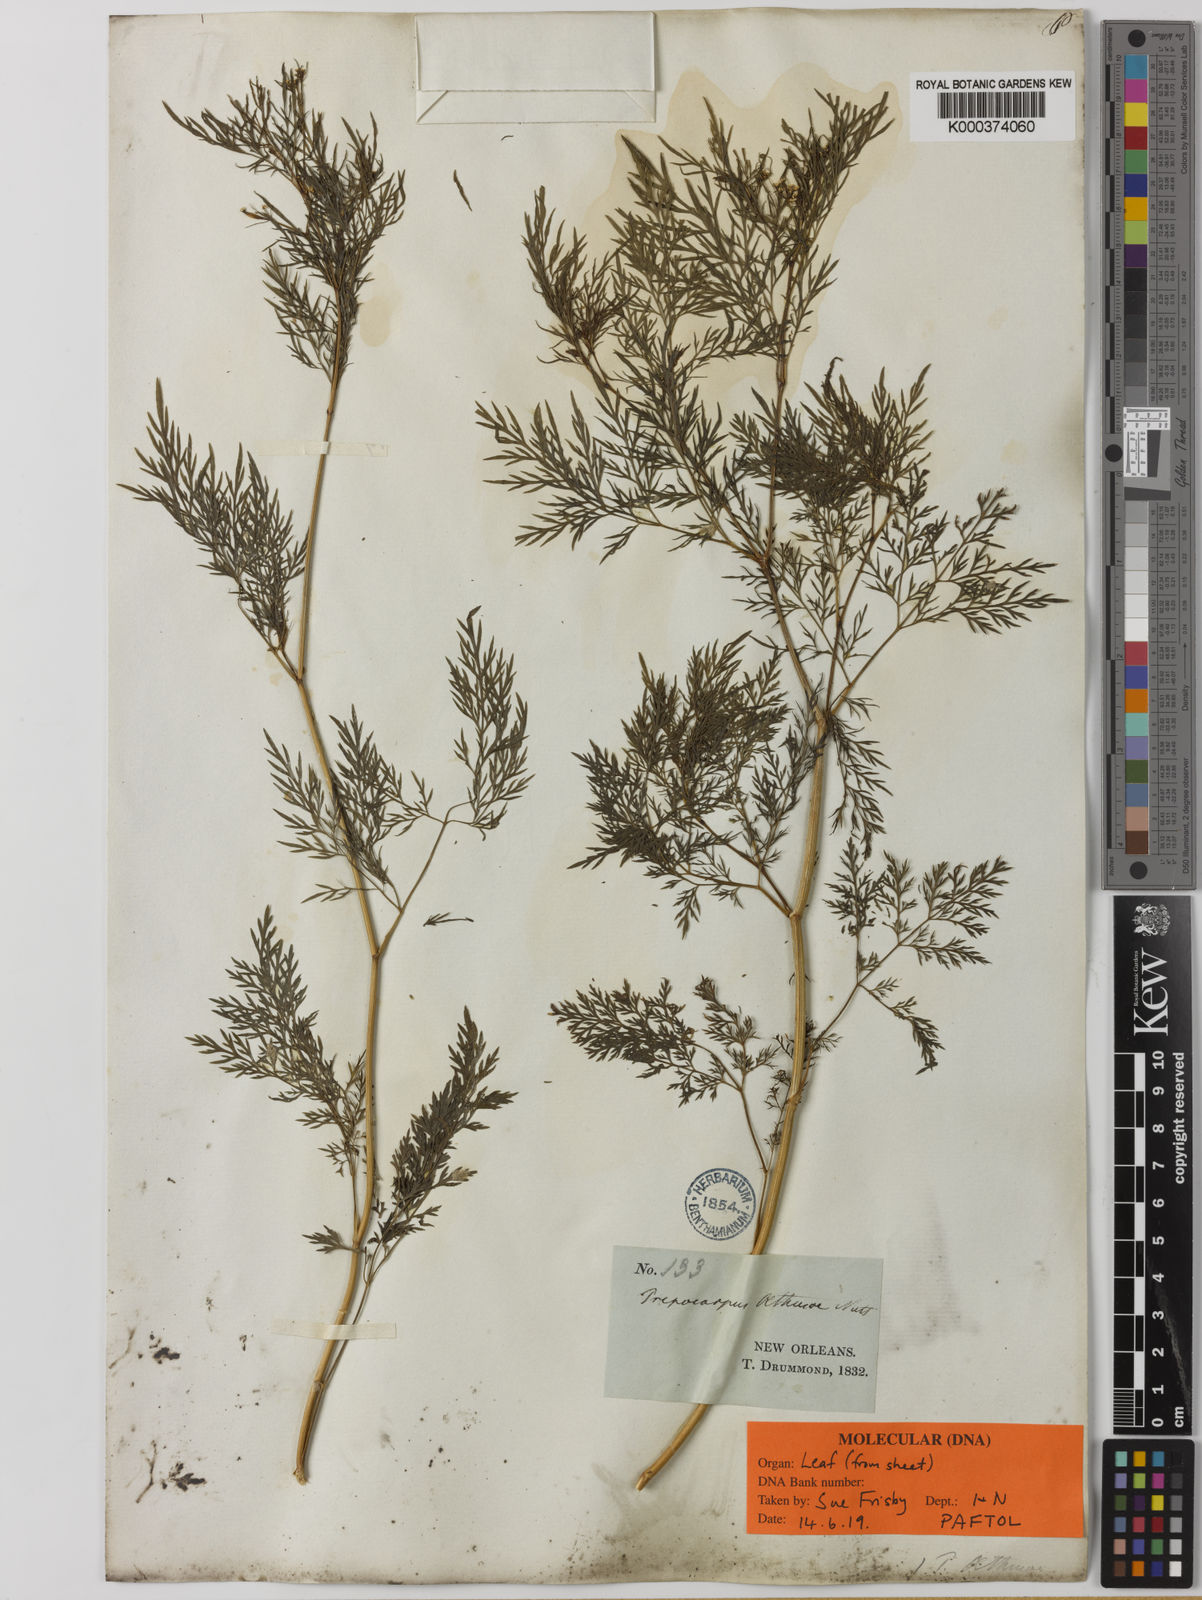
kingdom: Plantae
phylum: Tracheophyta
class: Magnoliopsida
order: Apiales
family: Apiaceae
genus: Trepocarpus
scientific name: Trepocarpus
